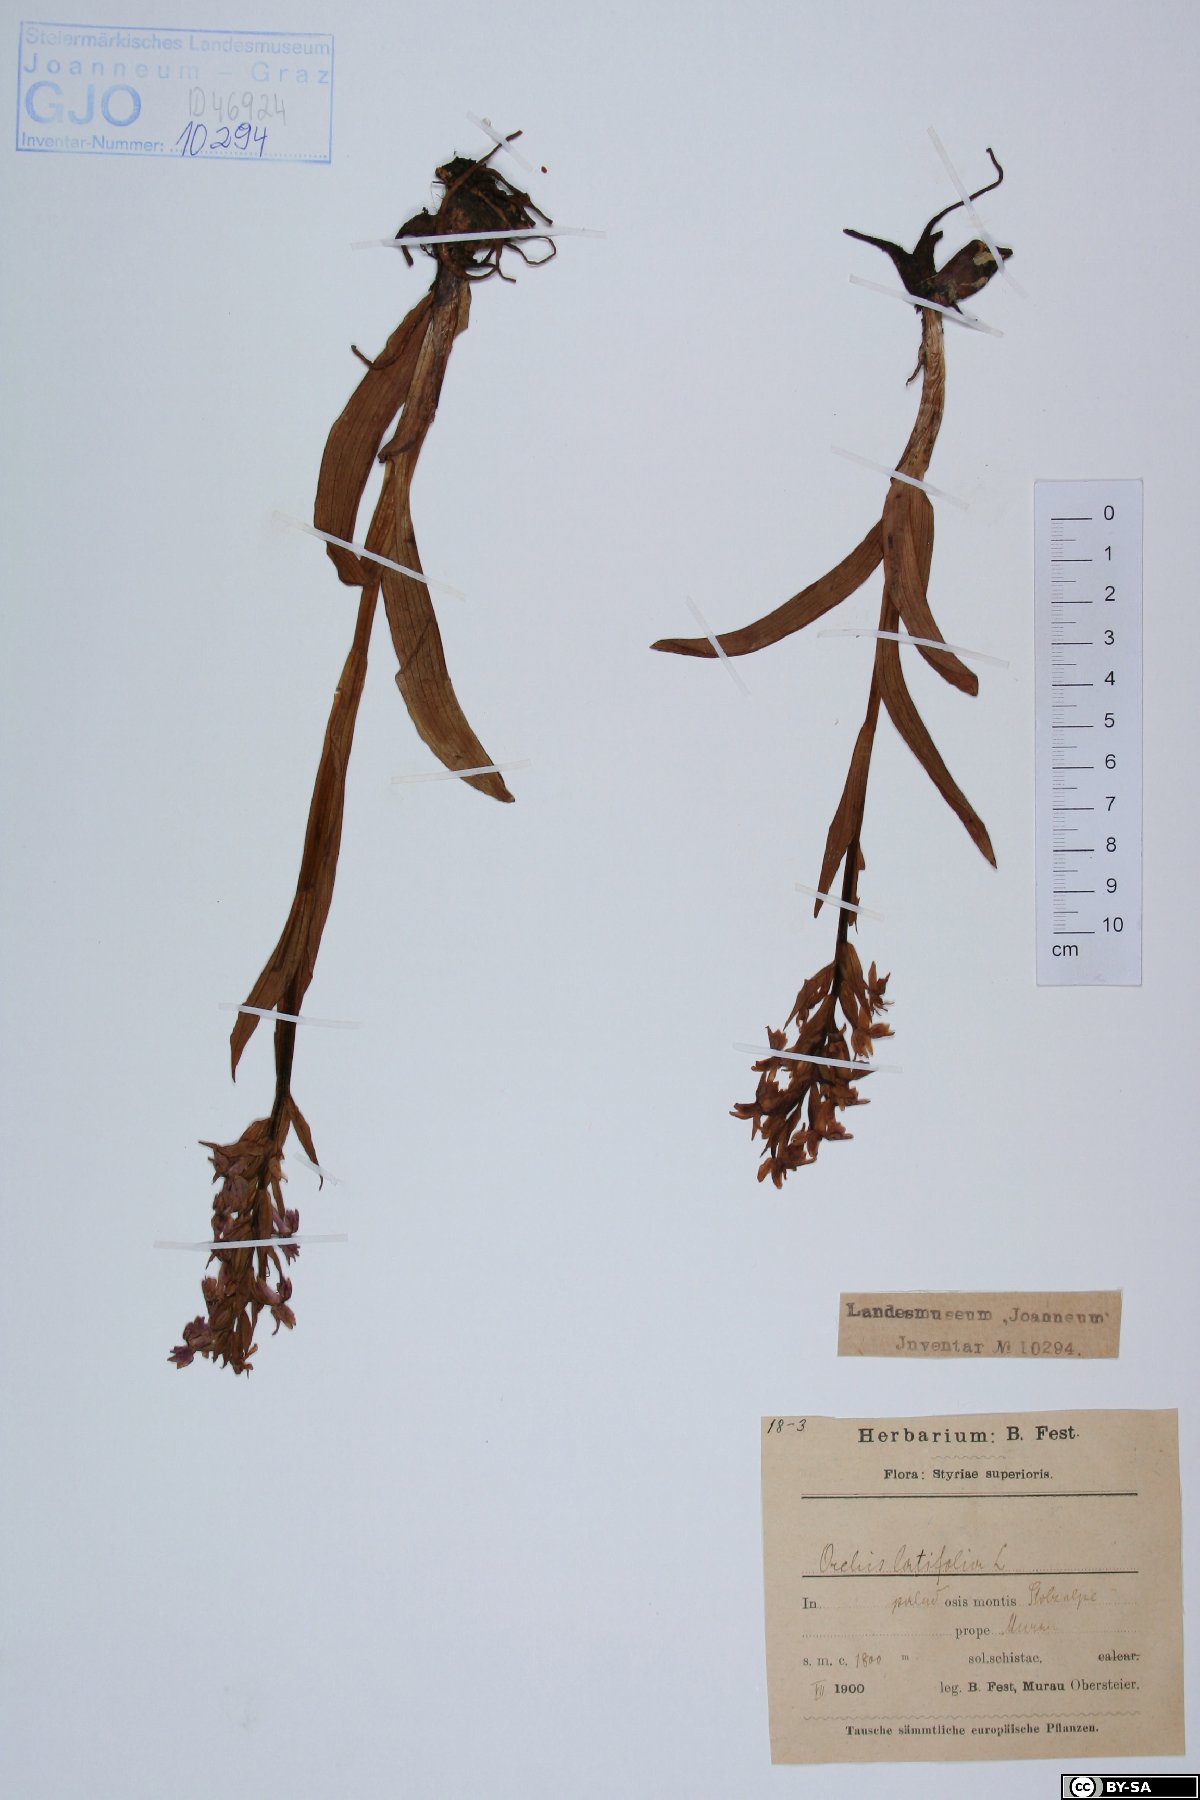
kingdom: Plantae
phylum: Tracheophyta
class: Liliopsida
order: Asparagales
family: Orchidaceae
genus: Dactylorhiza
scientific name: Dactylorhiza incarnata
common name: Early marsh-orchid
